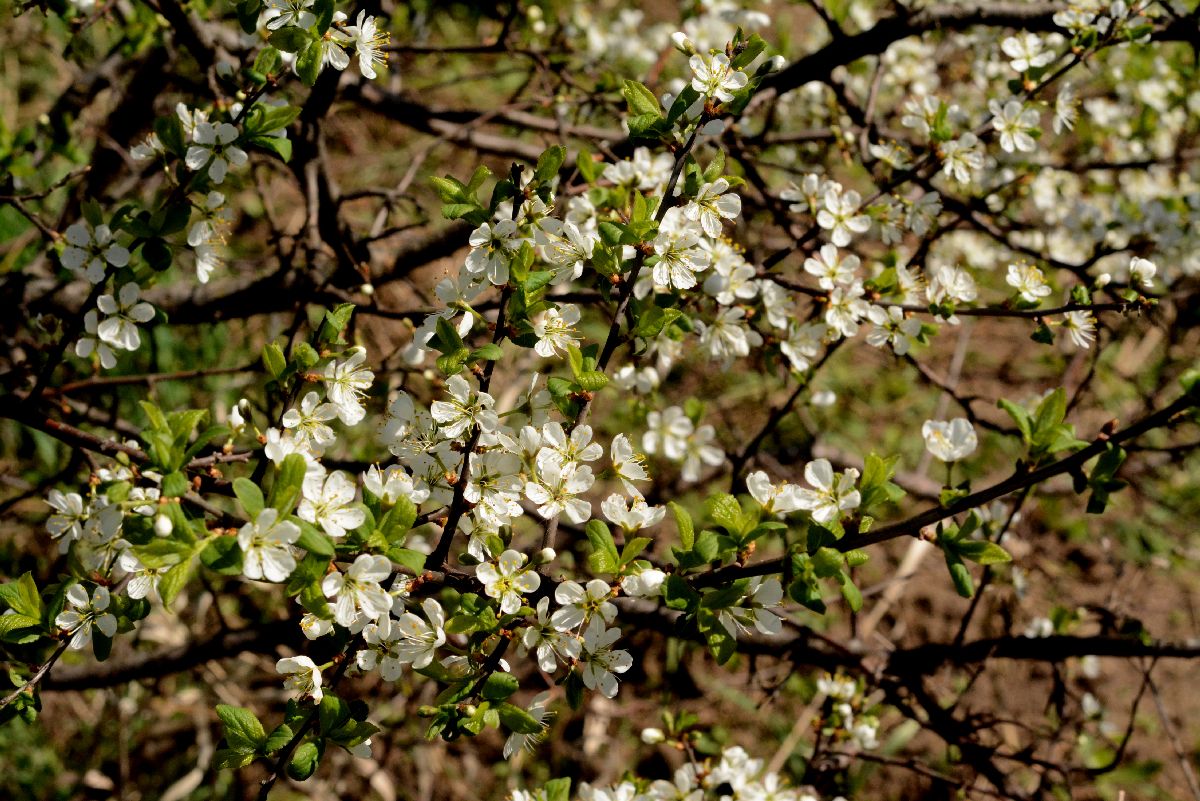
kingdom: Plantae
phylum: Tracheophyta
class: Magnoliopsida
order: Rosales
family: Rosaceae
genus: Prunus
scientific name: Prunus spinosa
